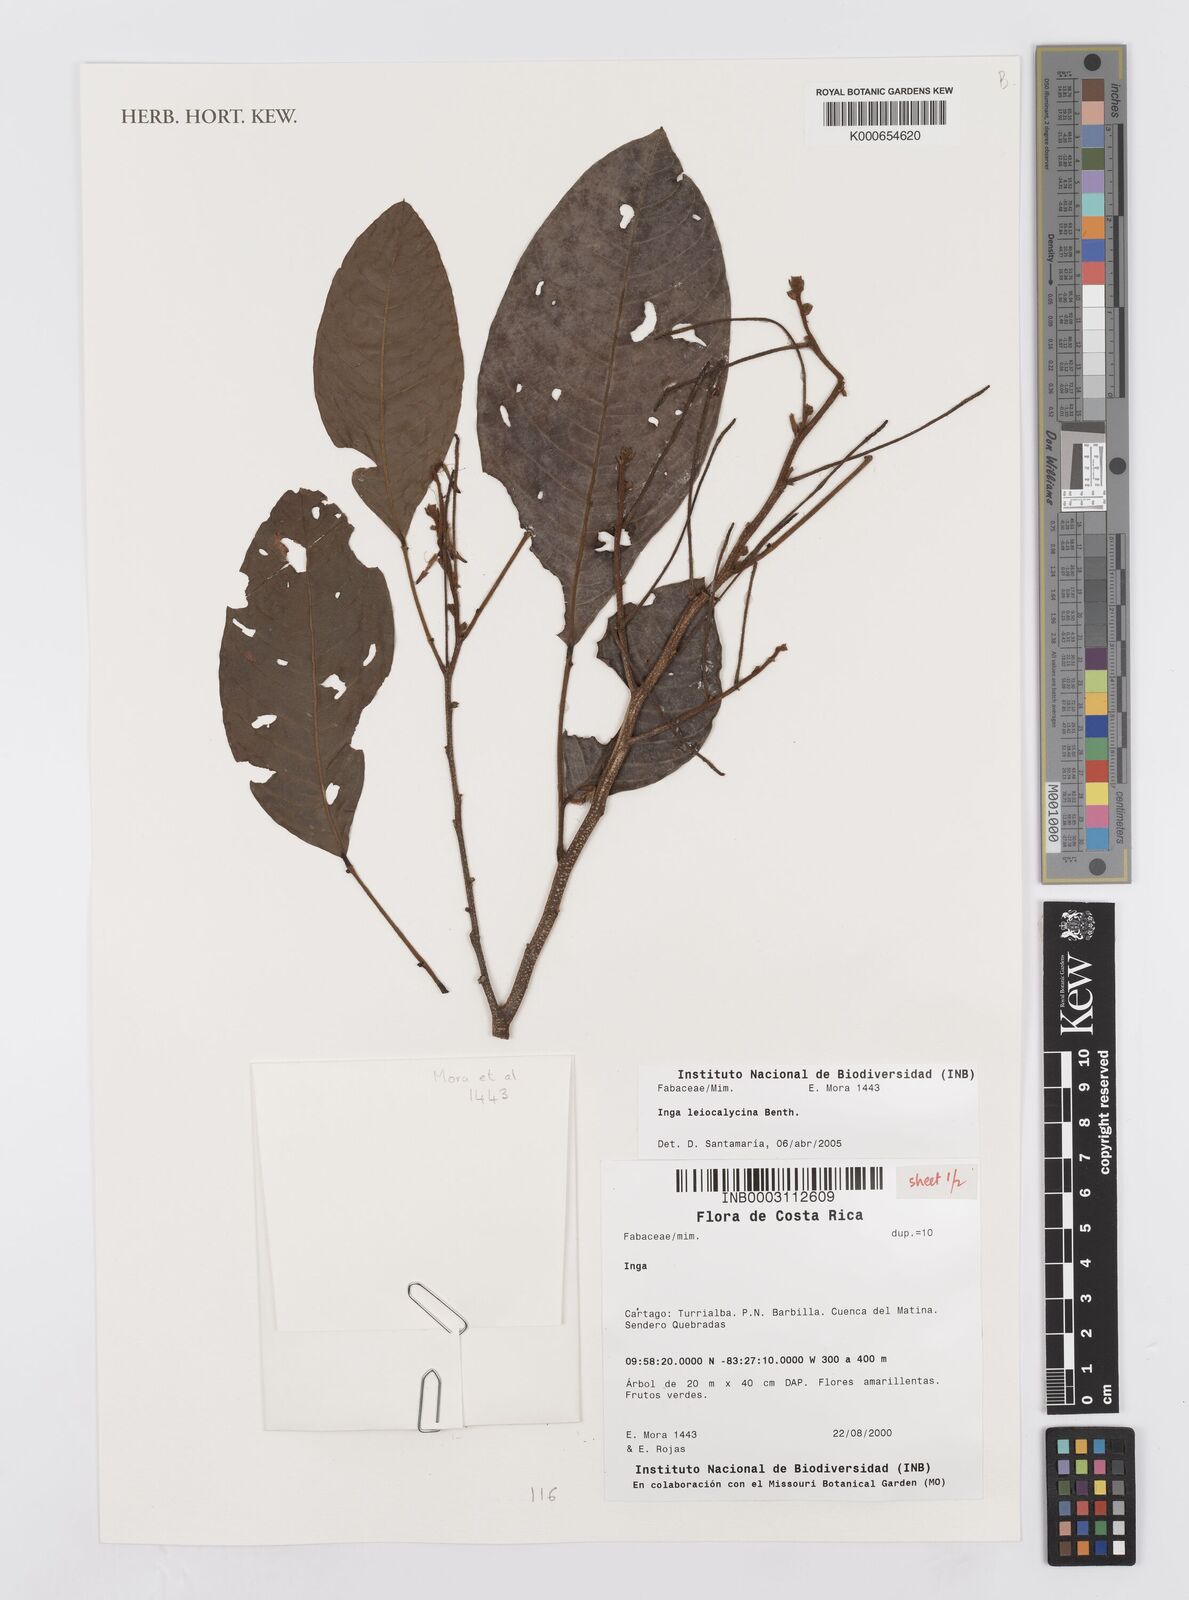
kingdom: Plantae
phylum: Tracheophyta
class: Magnoliopsida
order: Fabales
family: Fabaceae
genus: Inga
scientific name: Inga laevigata
